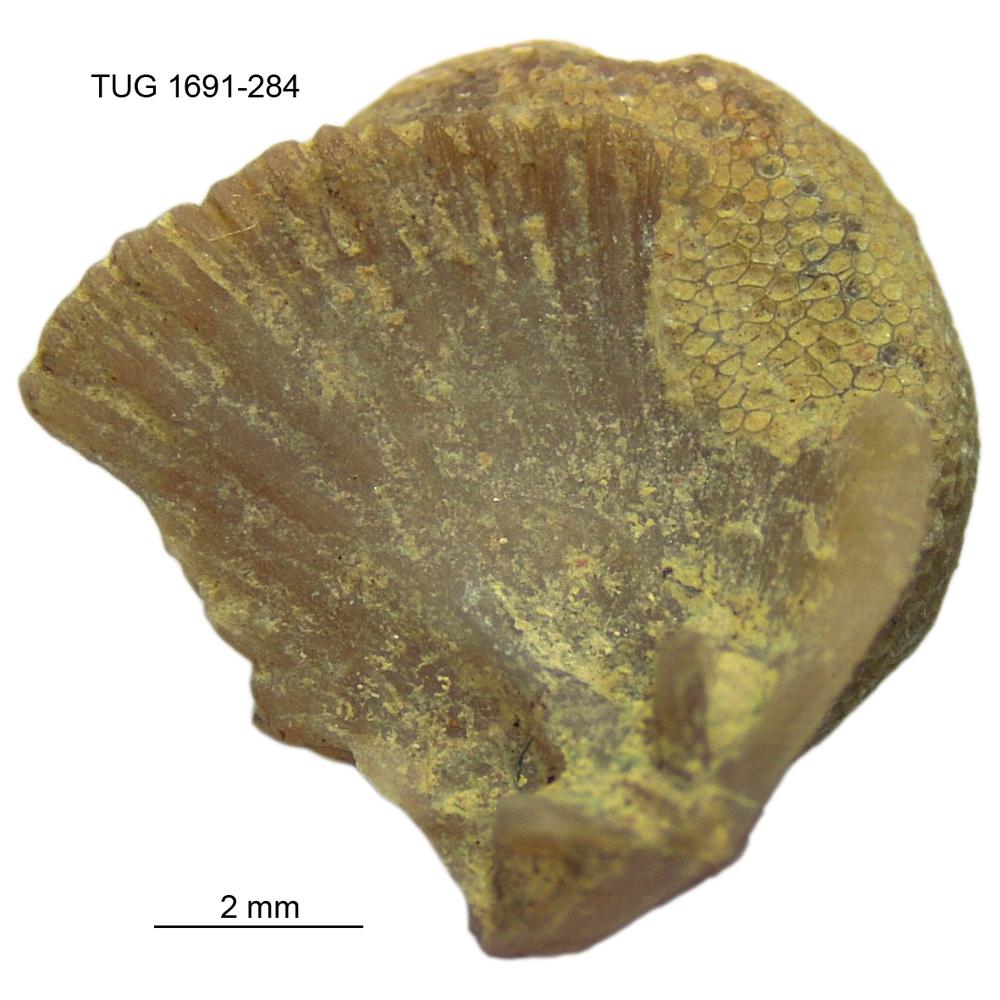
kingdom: Animalia
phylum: Bryozoa
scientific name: Bryozoa
